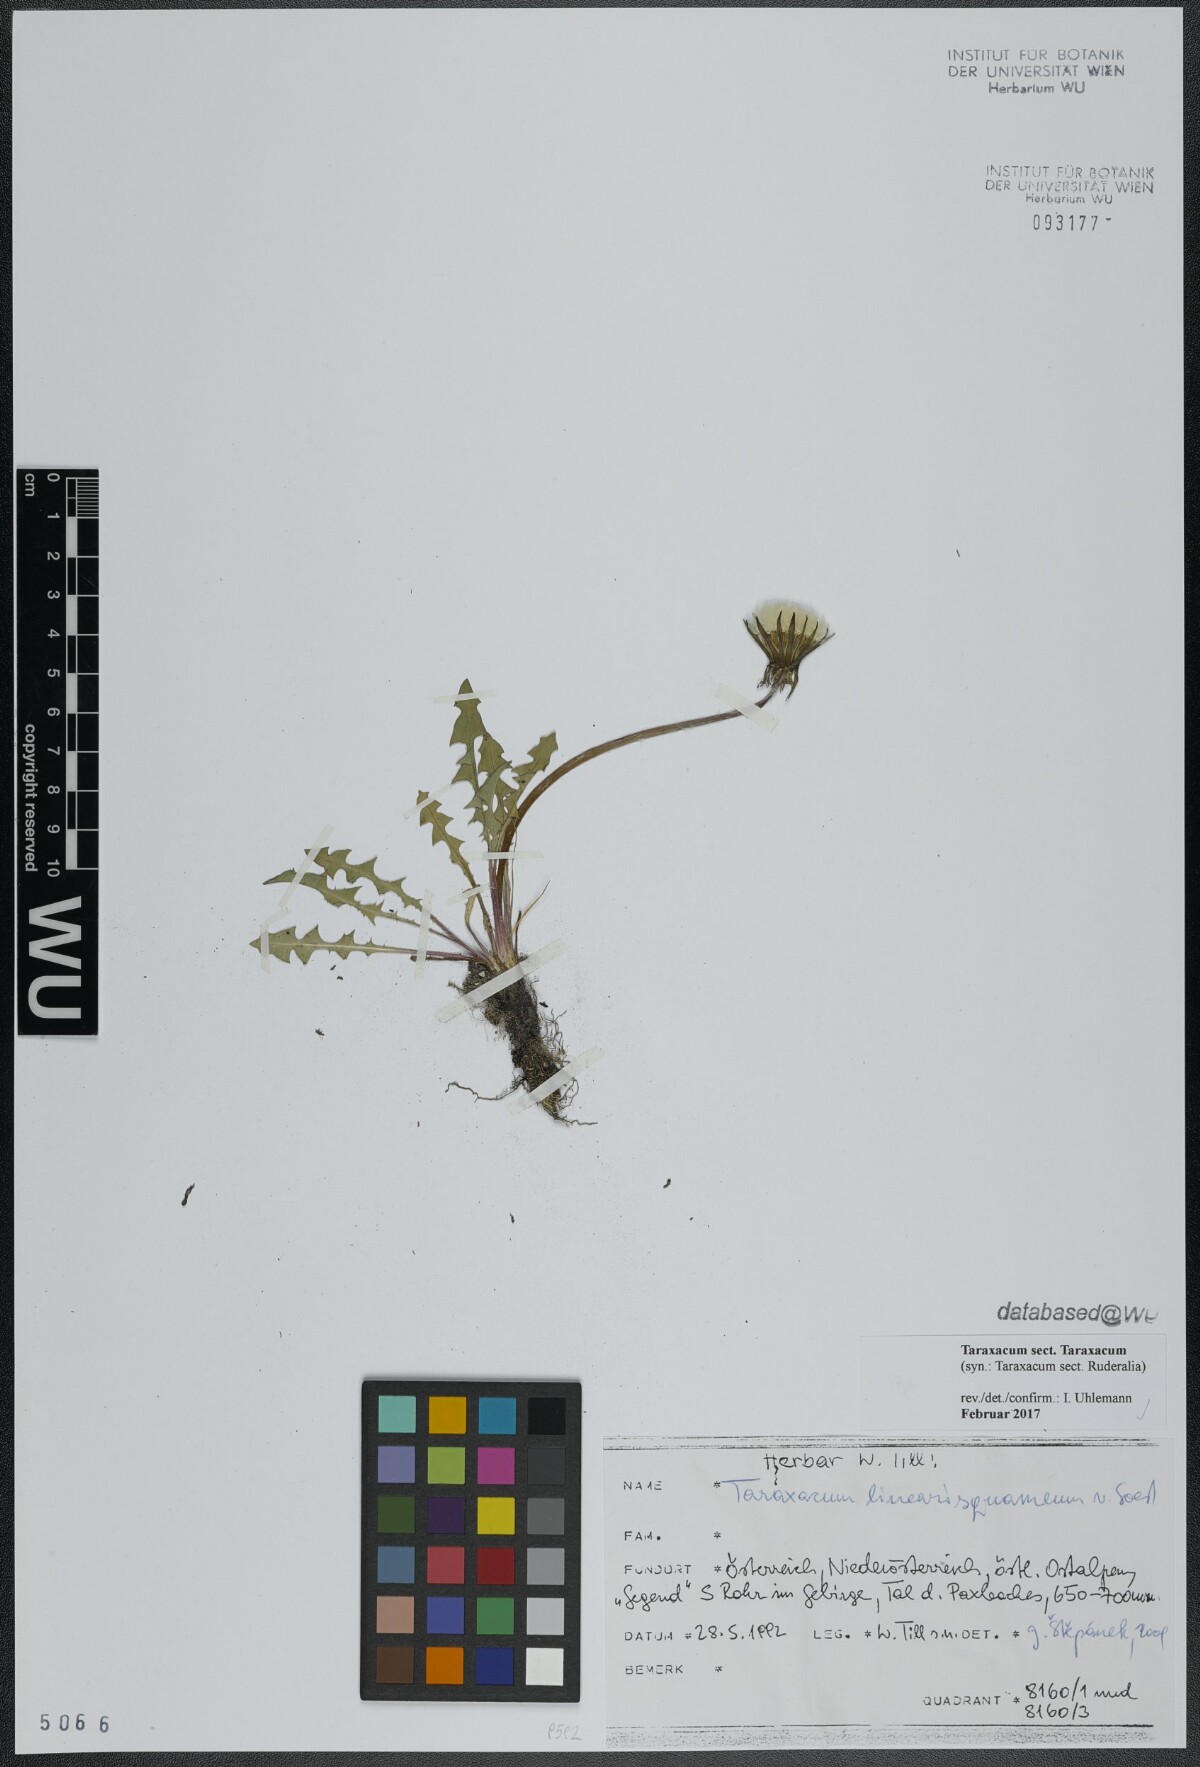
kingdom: Plantae
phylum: Tracheophyta
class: Magnoliopsida
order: Asterales
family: Asteraceae
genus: Taraxacum
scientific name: Taraxacum
